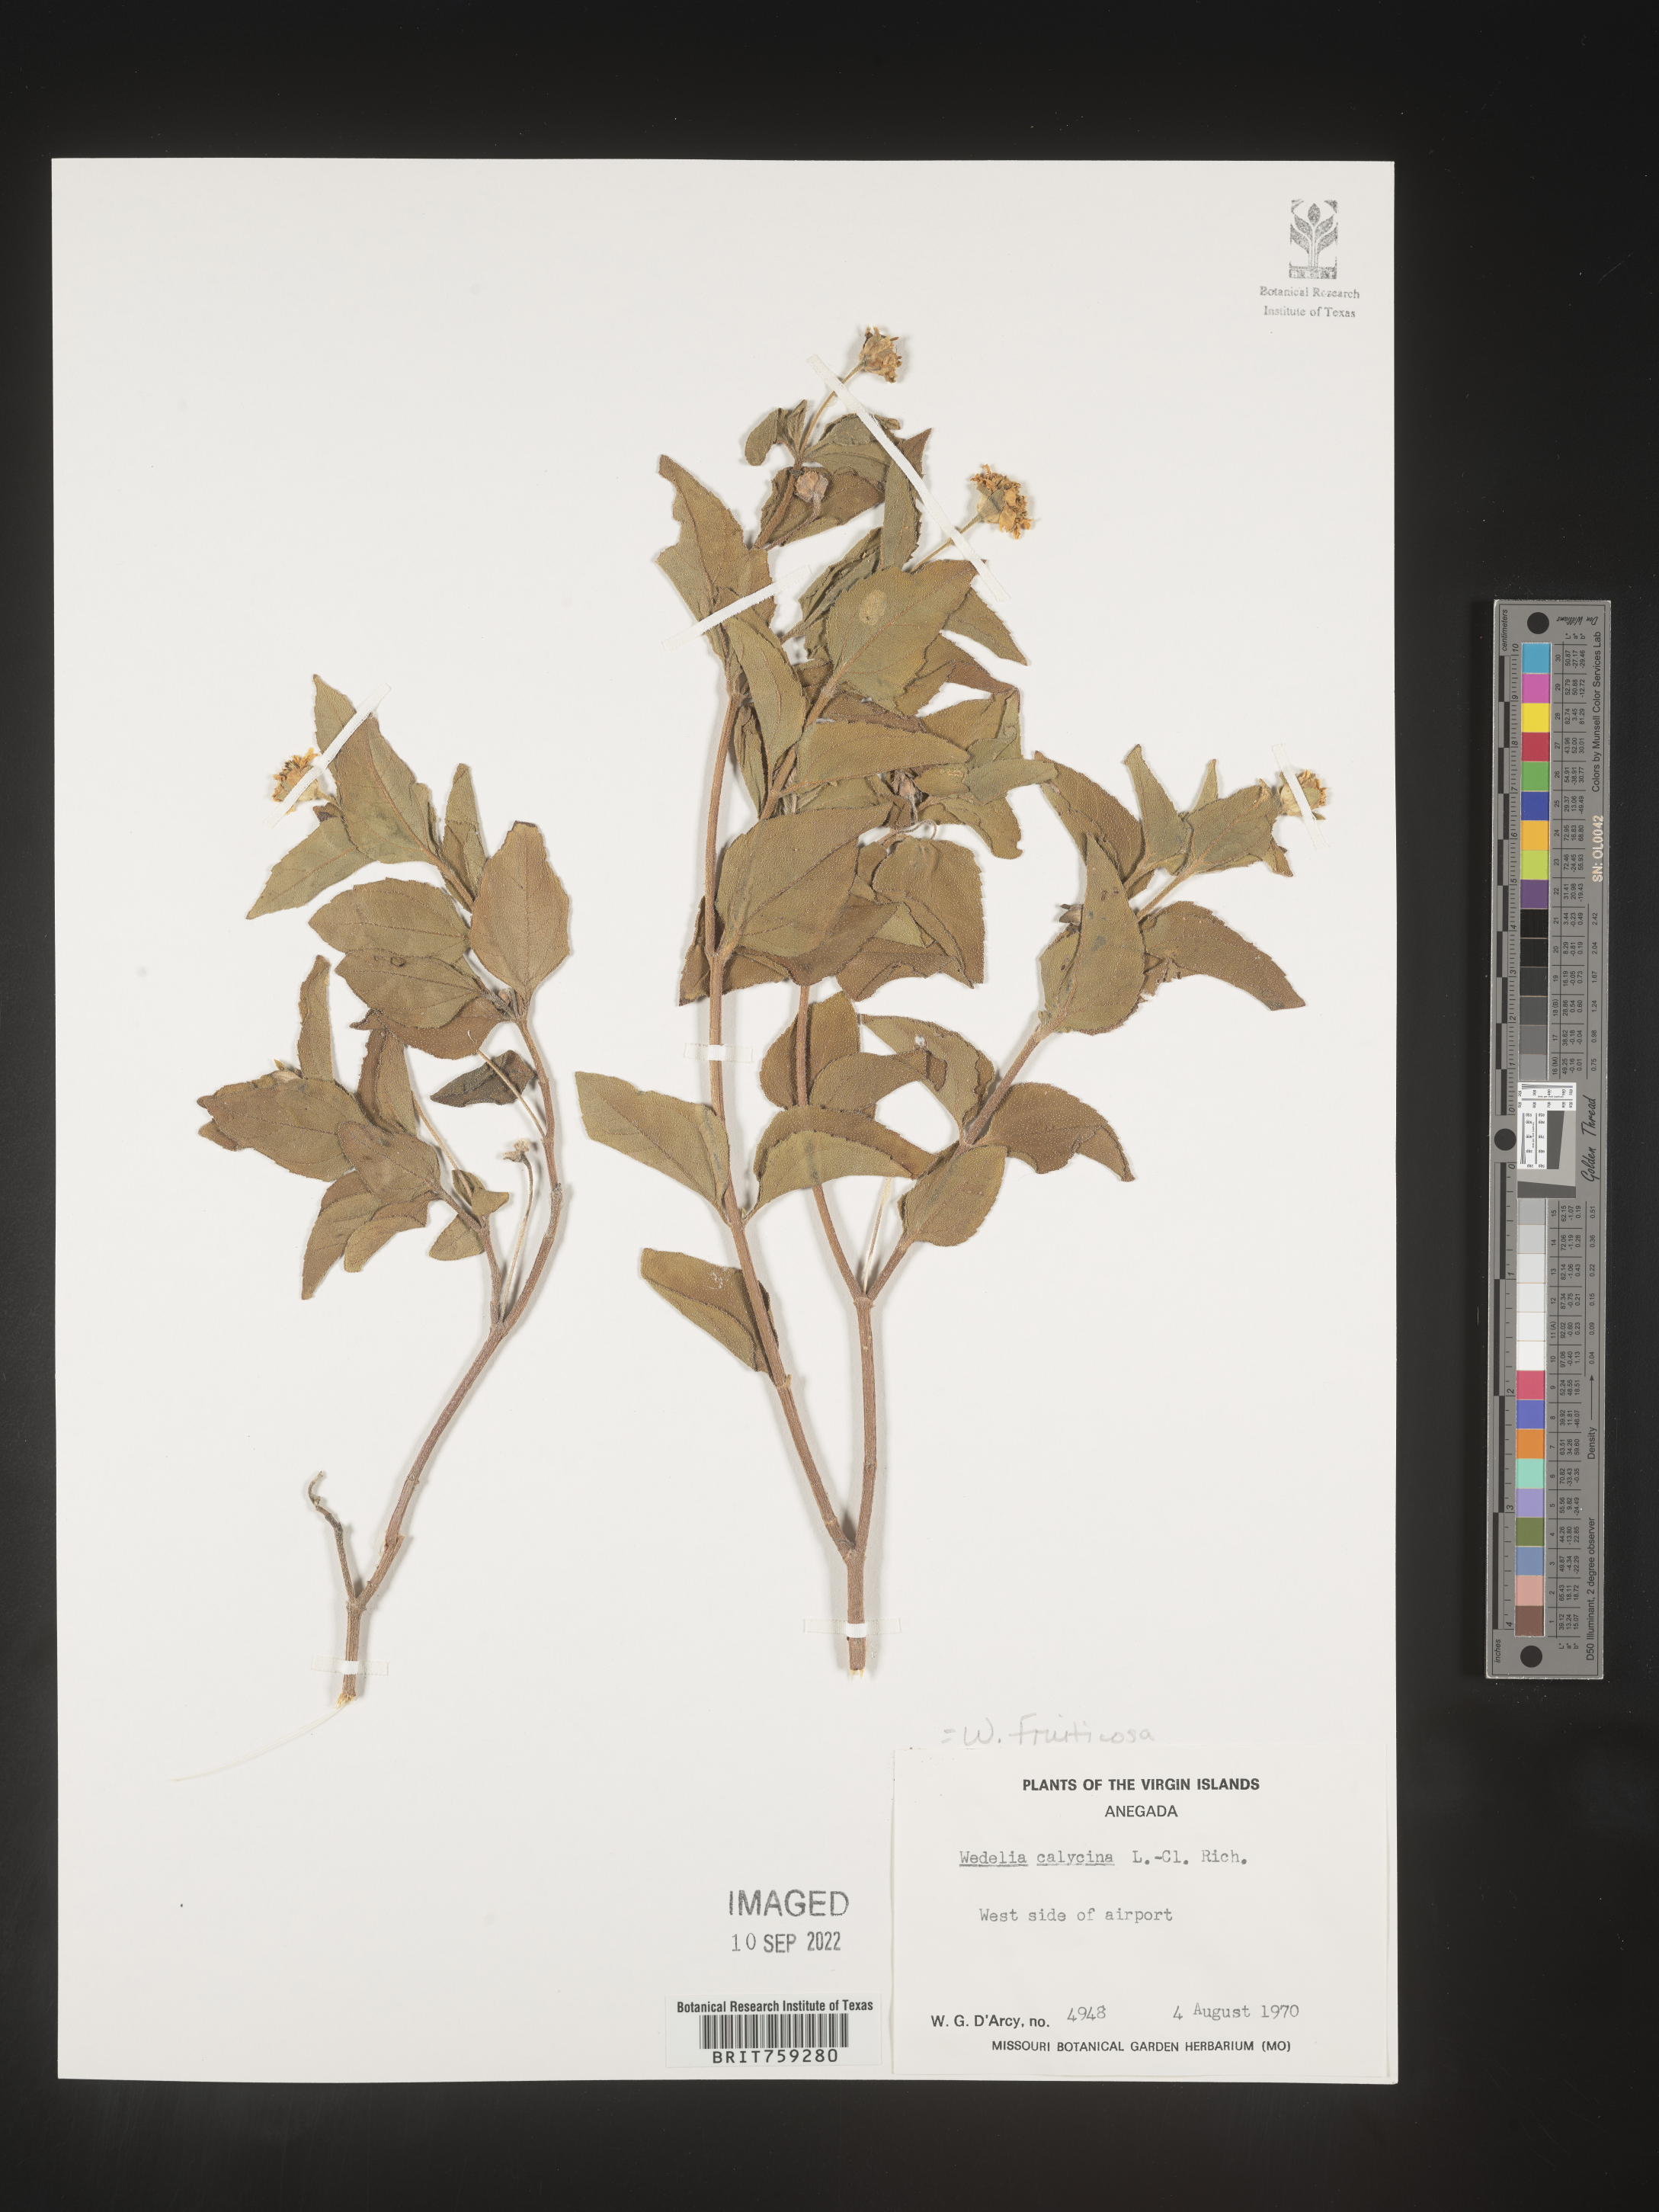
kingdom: Plantae
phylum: Tracheophyta
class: Magnoliopsida
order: Asterales
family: Asteraceae
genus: Wedelia
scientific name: Wedelia
